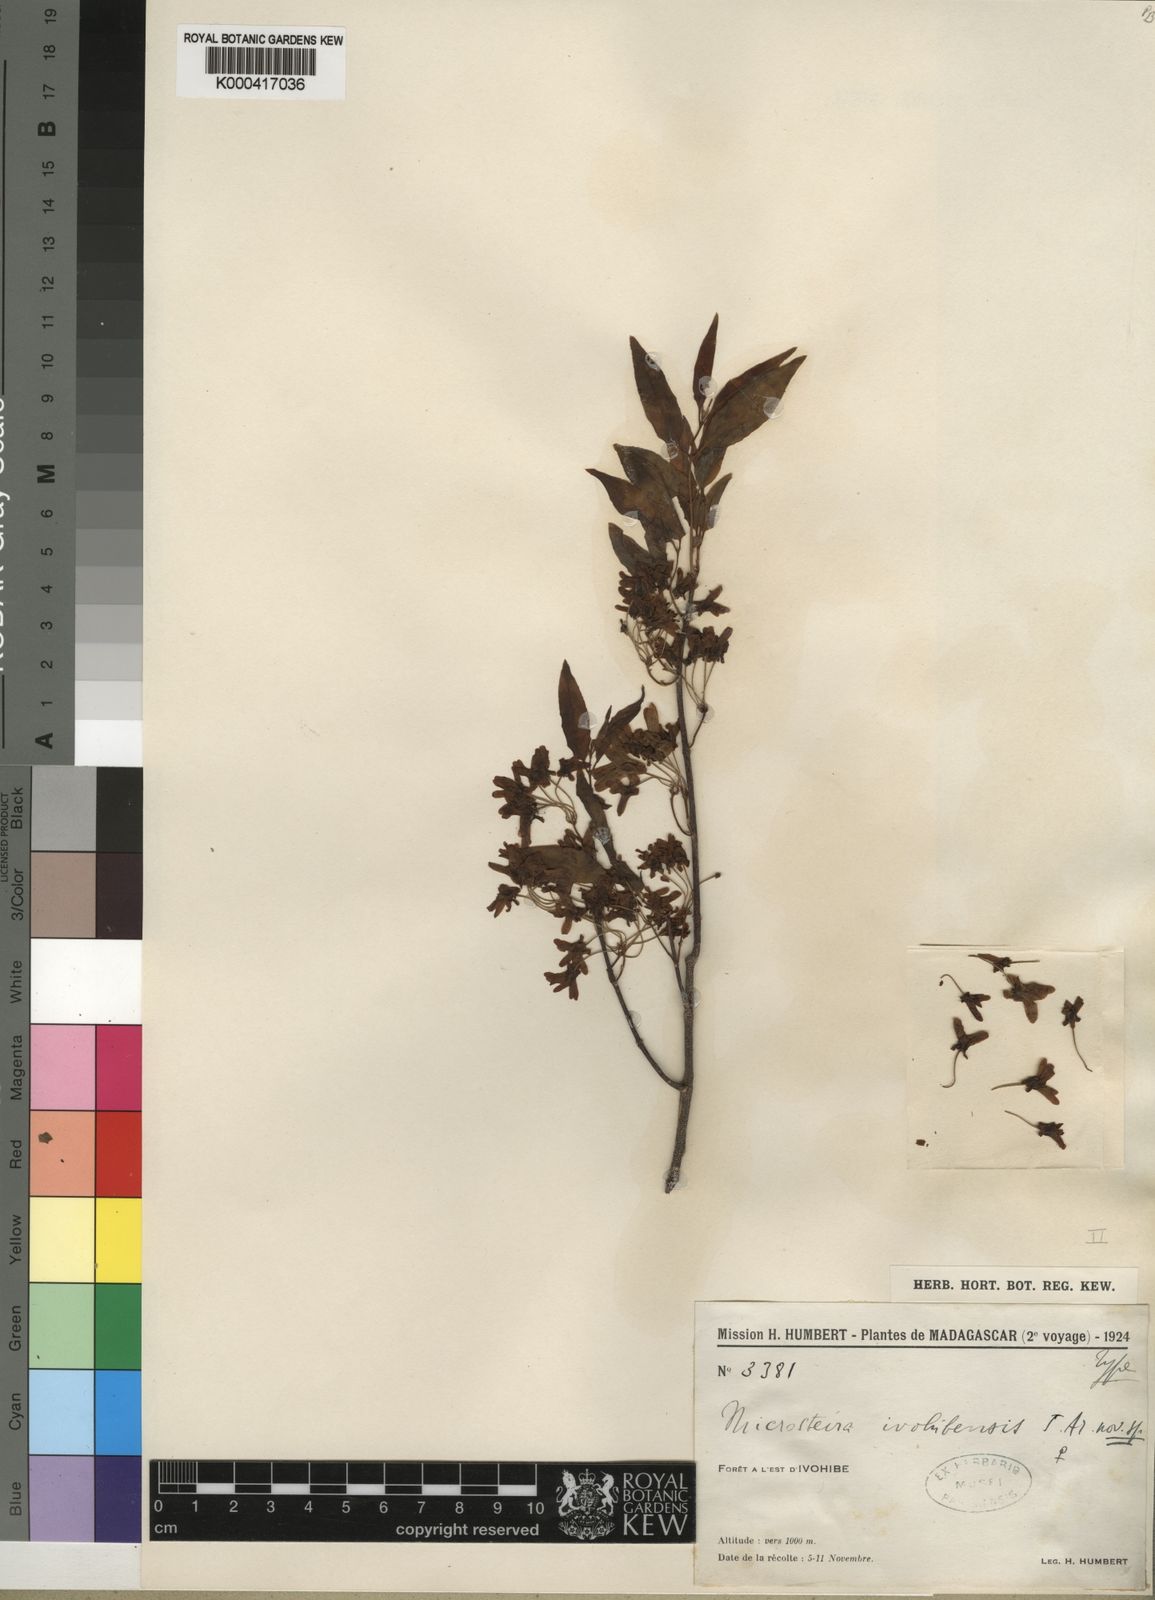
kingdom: Plantae
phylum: Tracheophyta
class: Magnoliopsida
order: Malpighiales
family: Malpighiaceae
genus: Microsteira
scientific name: Microsteira
